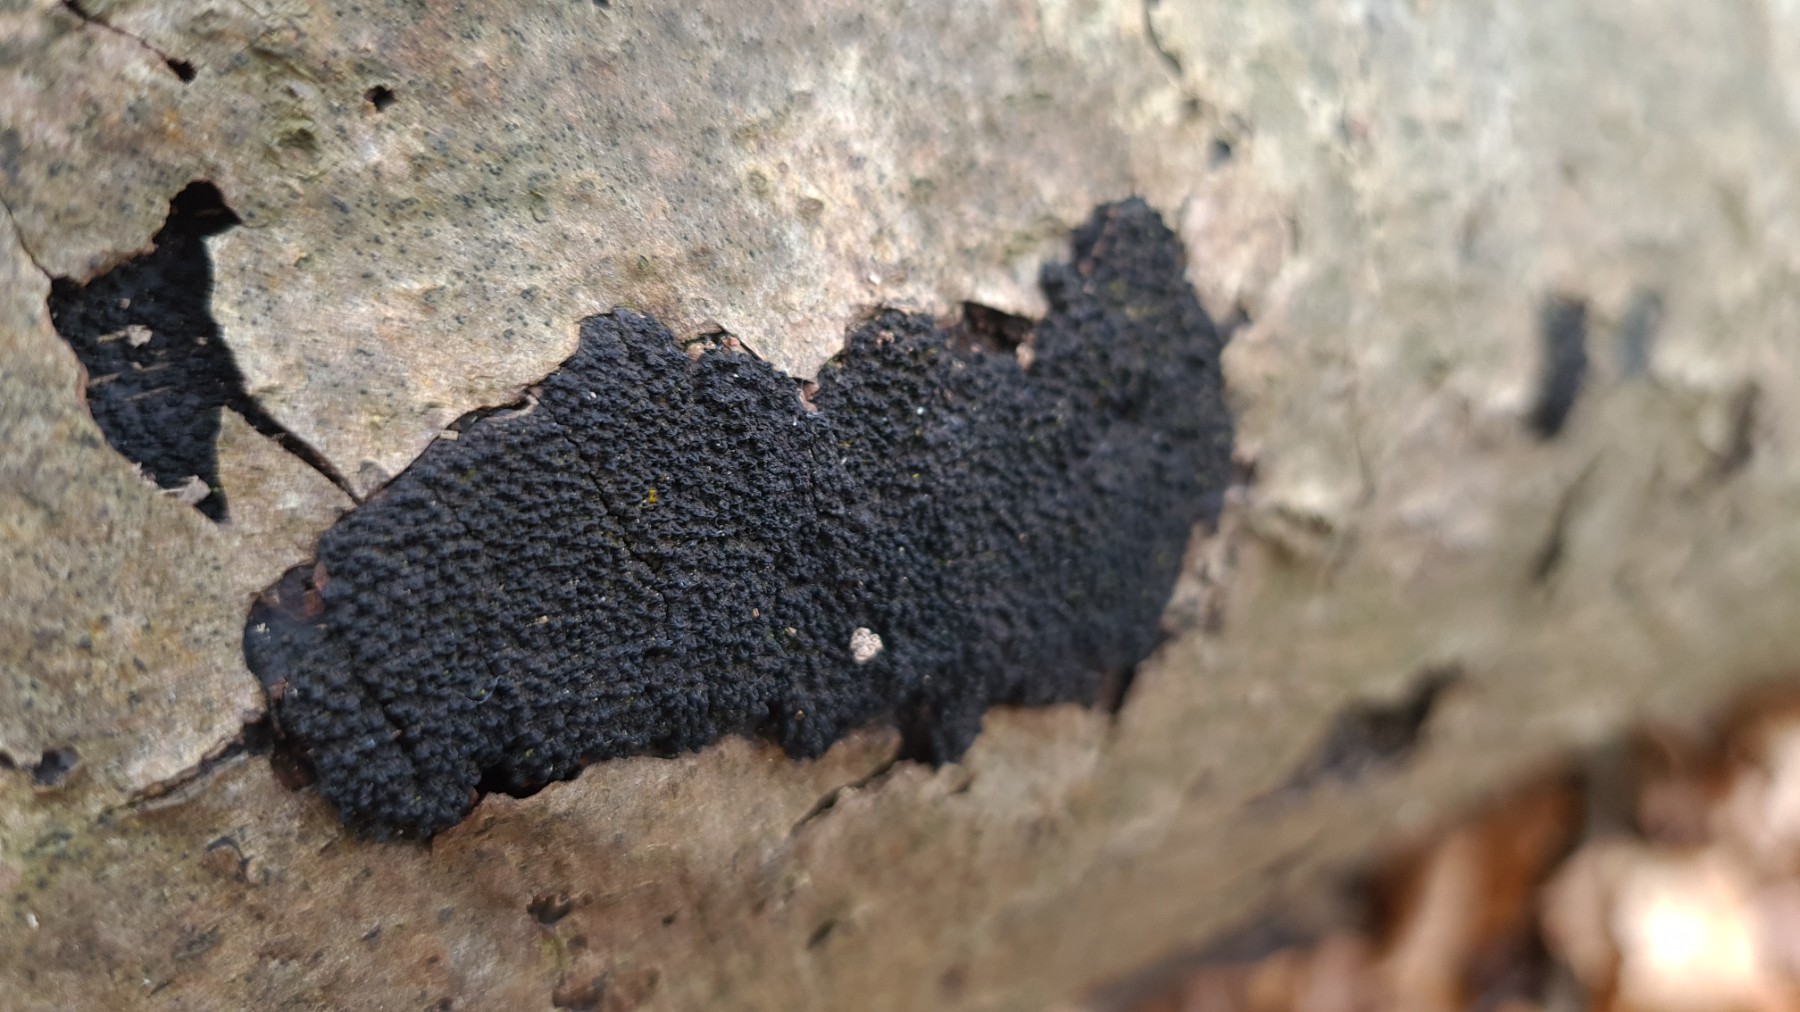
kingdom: Fungi
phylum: Ascomycota
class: Sordariomycetes
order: Xylariales
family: Diatrypaceae
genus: Eutypa
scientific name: Eutypa spinosa
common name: grov kulskorpe
